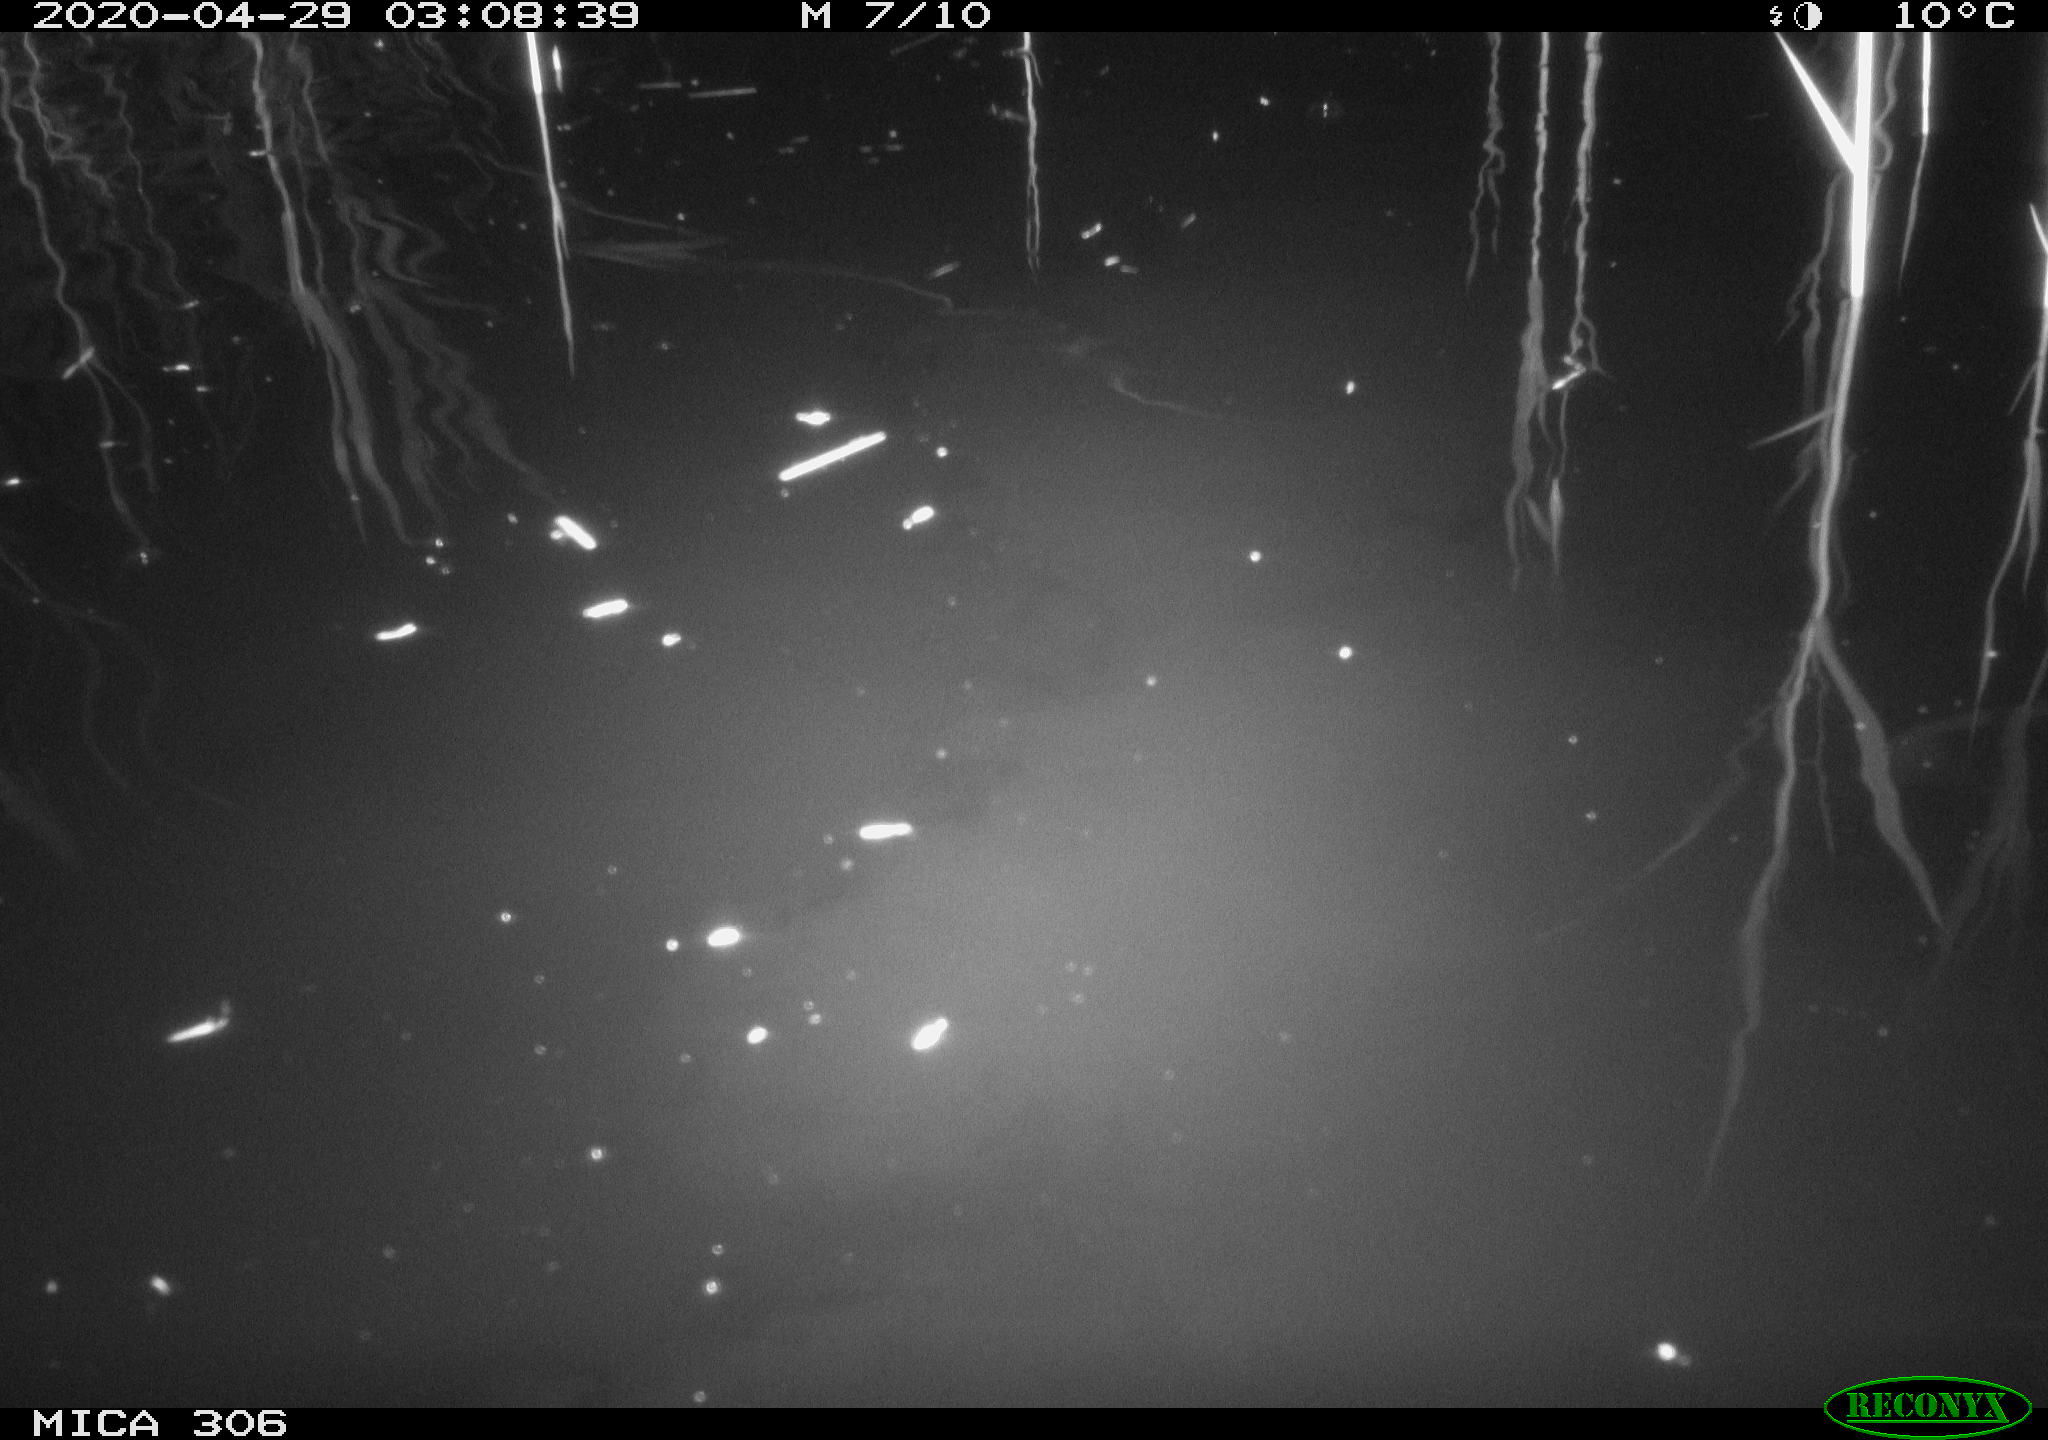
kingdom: Animalia
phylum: Chordata
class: Mammalia
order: Rodentia
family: Cricetidae
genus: Ondatra
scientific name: Ondatra zibethicus
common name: Muskrat
